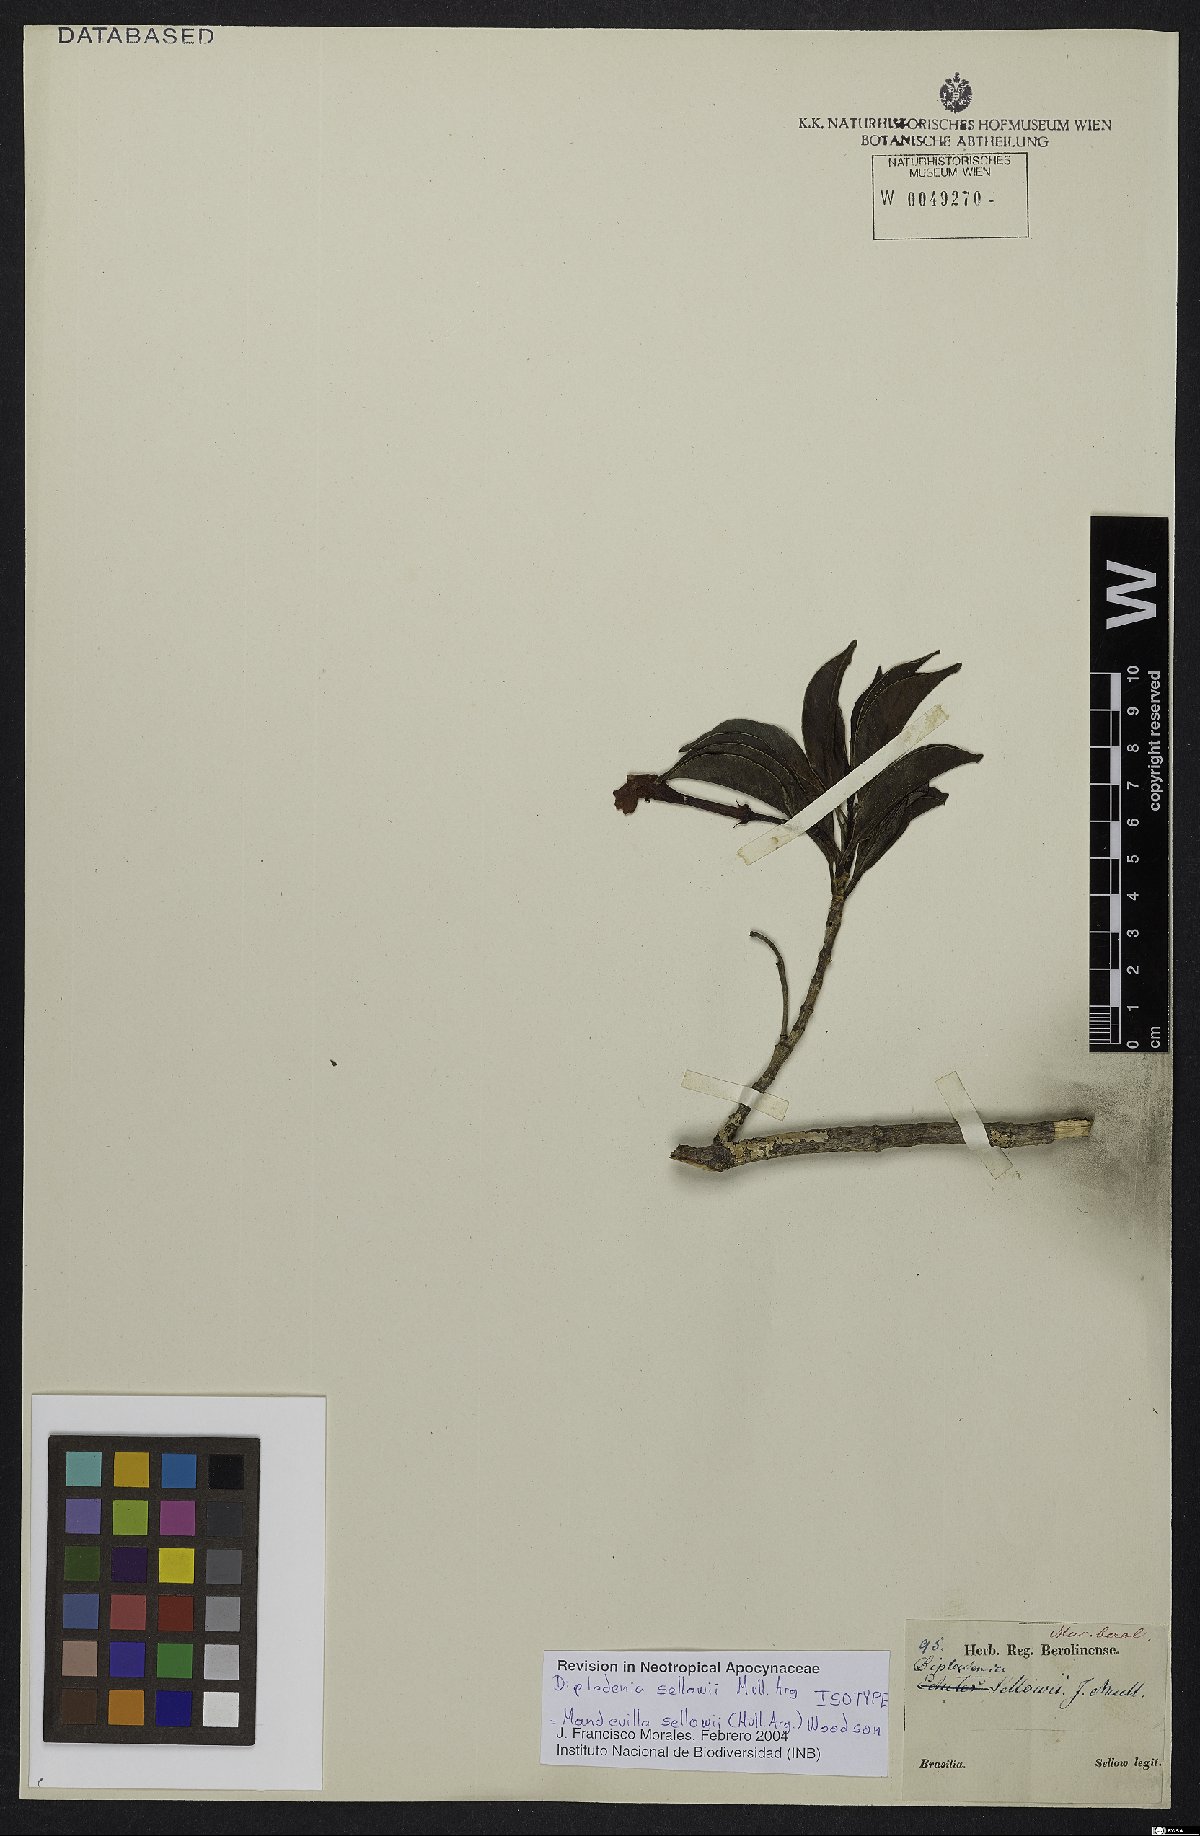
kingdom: Plantae
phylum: Tracheophyta
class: Magnoliopsida
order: Gentianales
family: Apocynaceae
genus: Mandevilla
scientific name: Mandevilla sellowii
